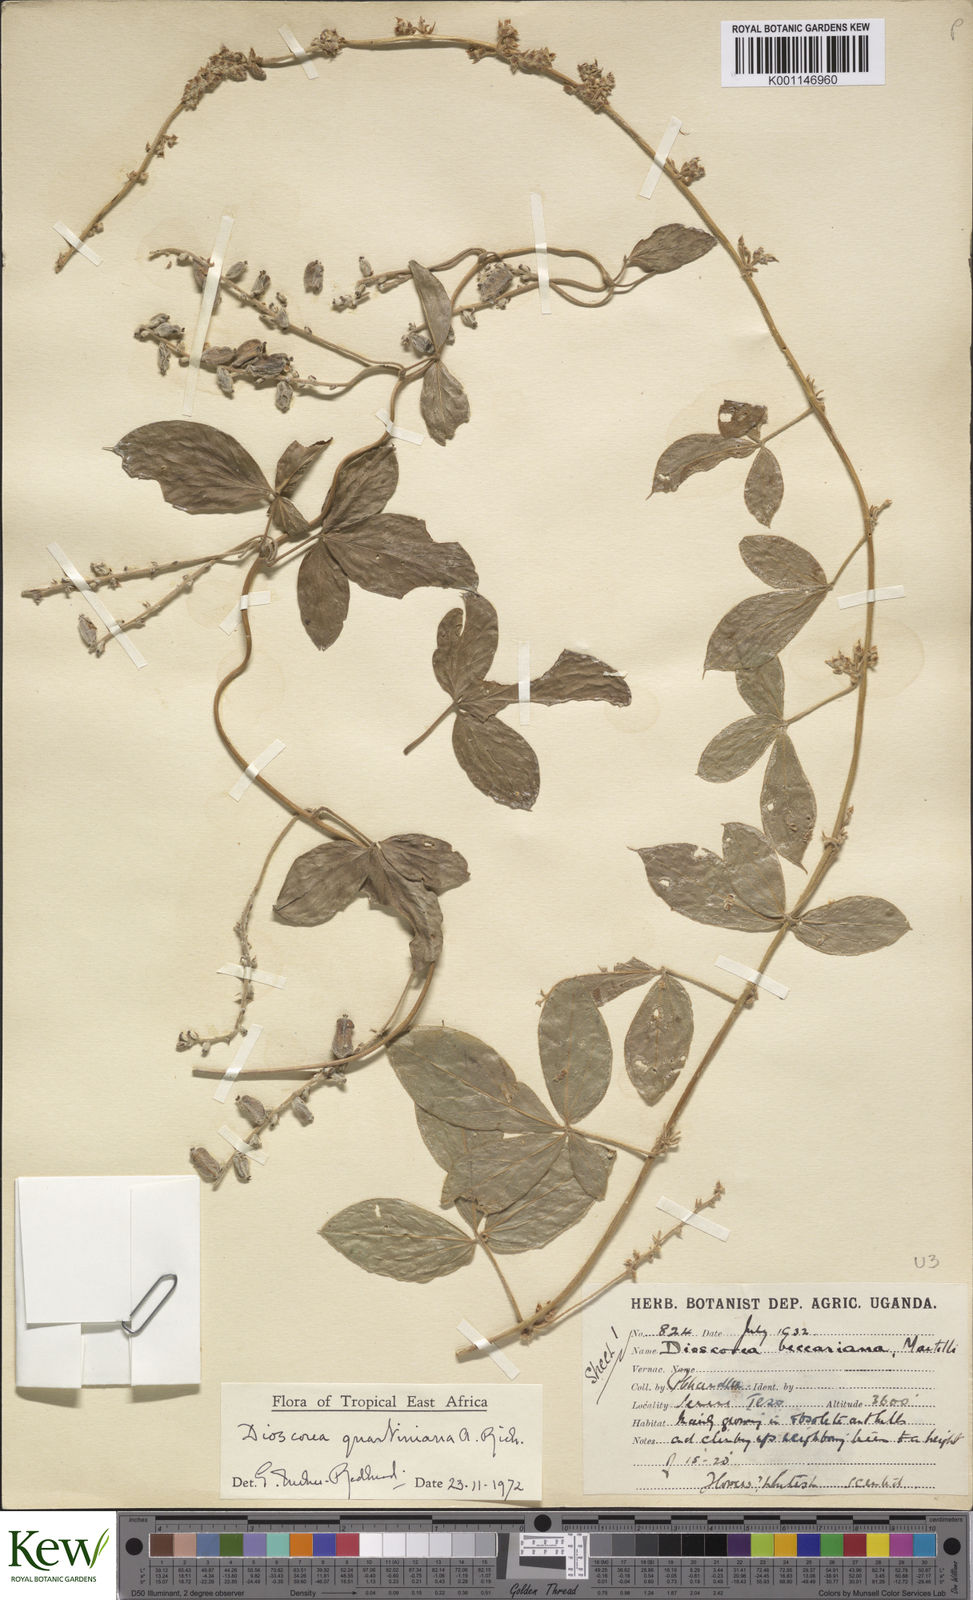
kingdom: Plantae
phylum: Tracheophyta
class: Liliopsida
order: Dioscoreales
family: Dioscoreaceae
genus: Dioscorea
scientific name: Dioscorea quartiniana
